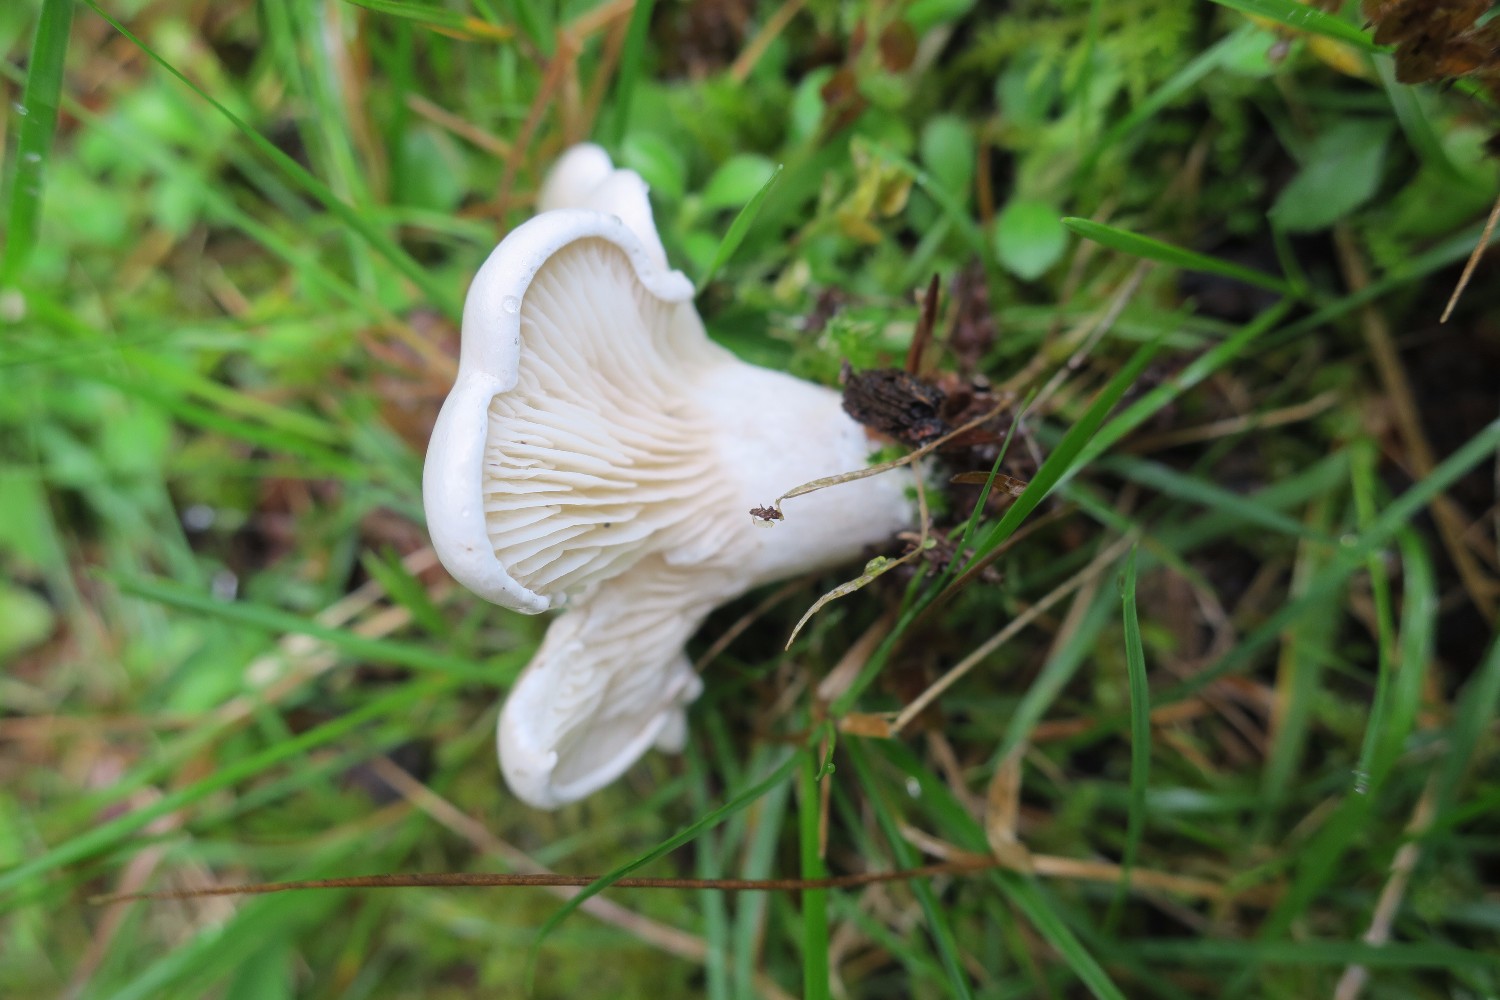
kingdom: Fungi
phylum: Basidiomycota
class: Agaricomycetes
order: Agaricales
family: Entolomataceae
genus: Clitopilus
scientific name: Clitopilus prunulus
